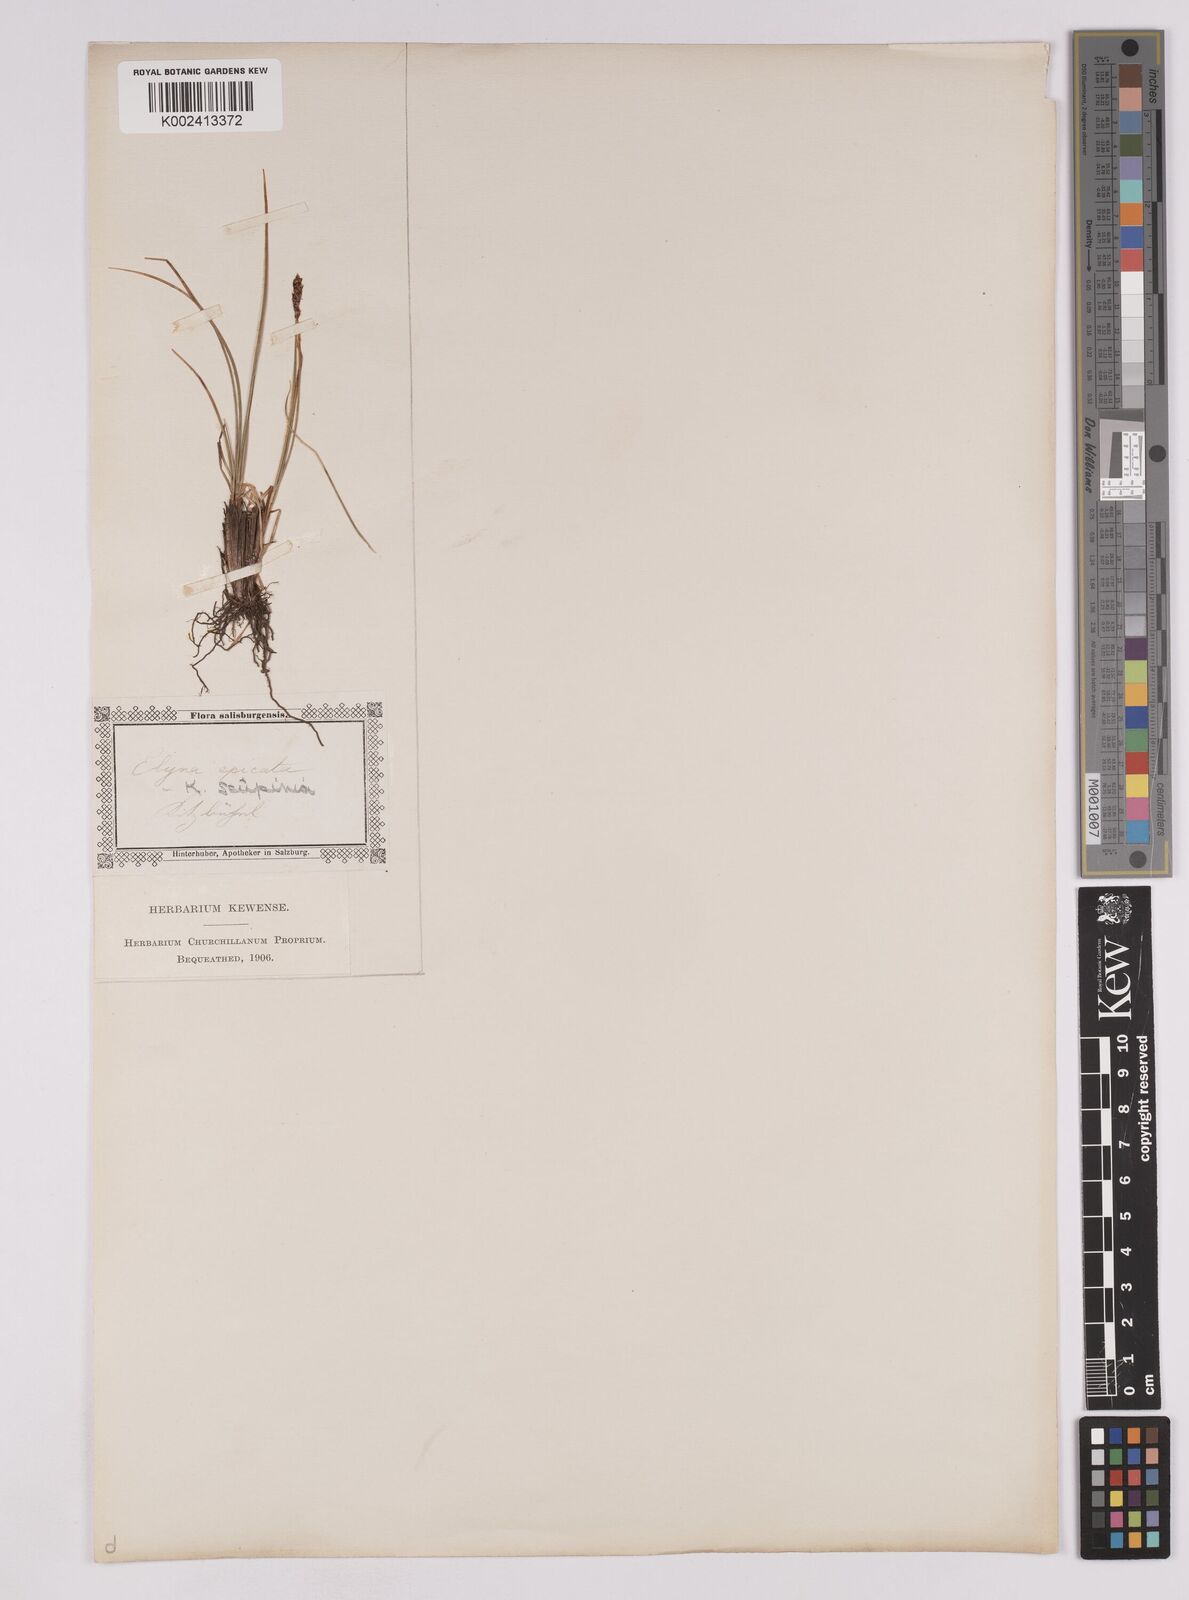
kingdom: Plantae
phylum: Tracheophyta
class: Liliopsida
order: Poales
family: Cyperaceae
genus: Carex
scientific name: Carex myosuroides
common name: Bellard's bog sedge
